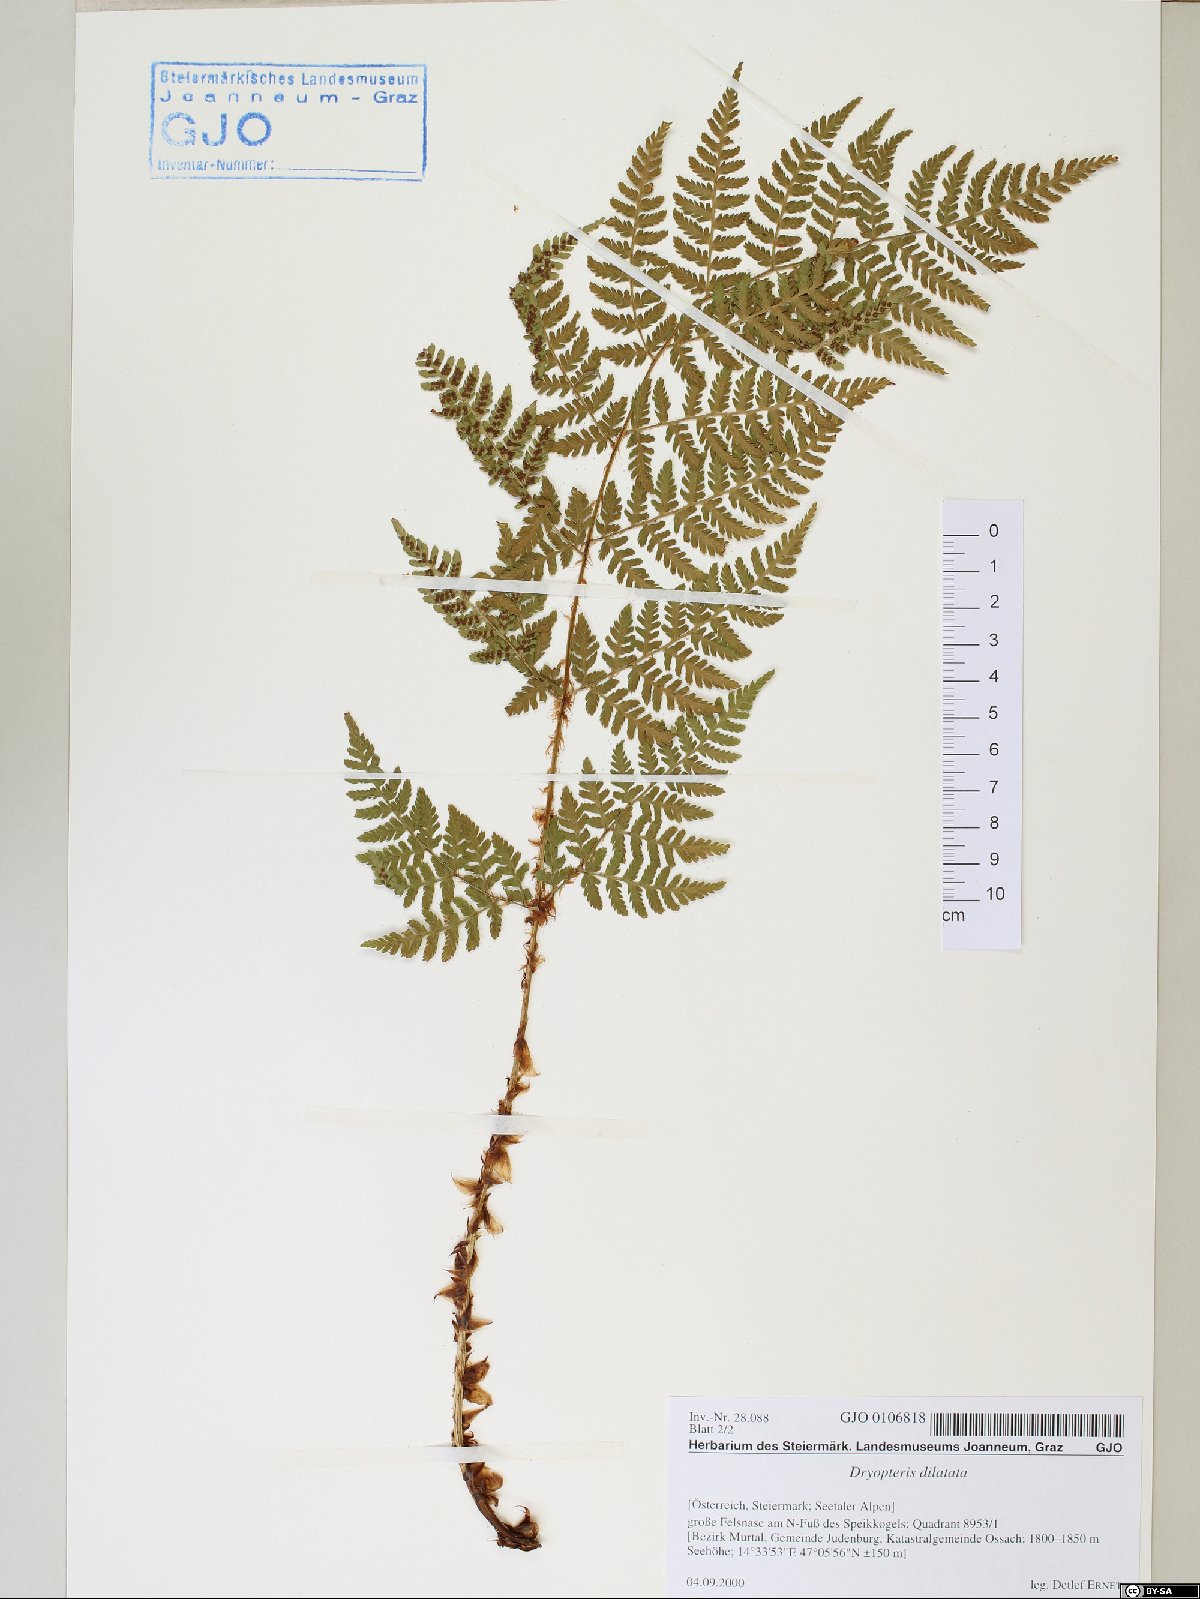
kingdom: Plantae
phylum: Tracheophyta
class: Polypodiopsida
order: Polypodiales
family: Dryopteridaceae
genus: Dryopteris
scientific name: Dryopteris dilatata
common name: Broad buckler-fern
